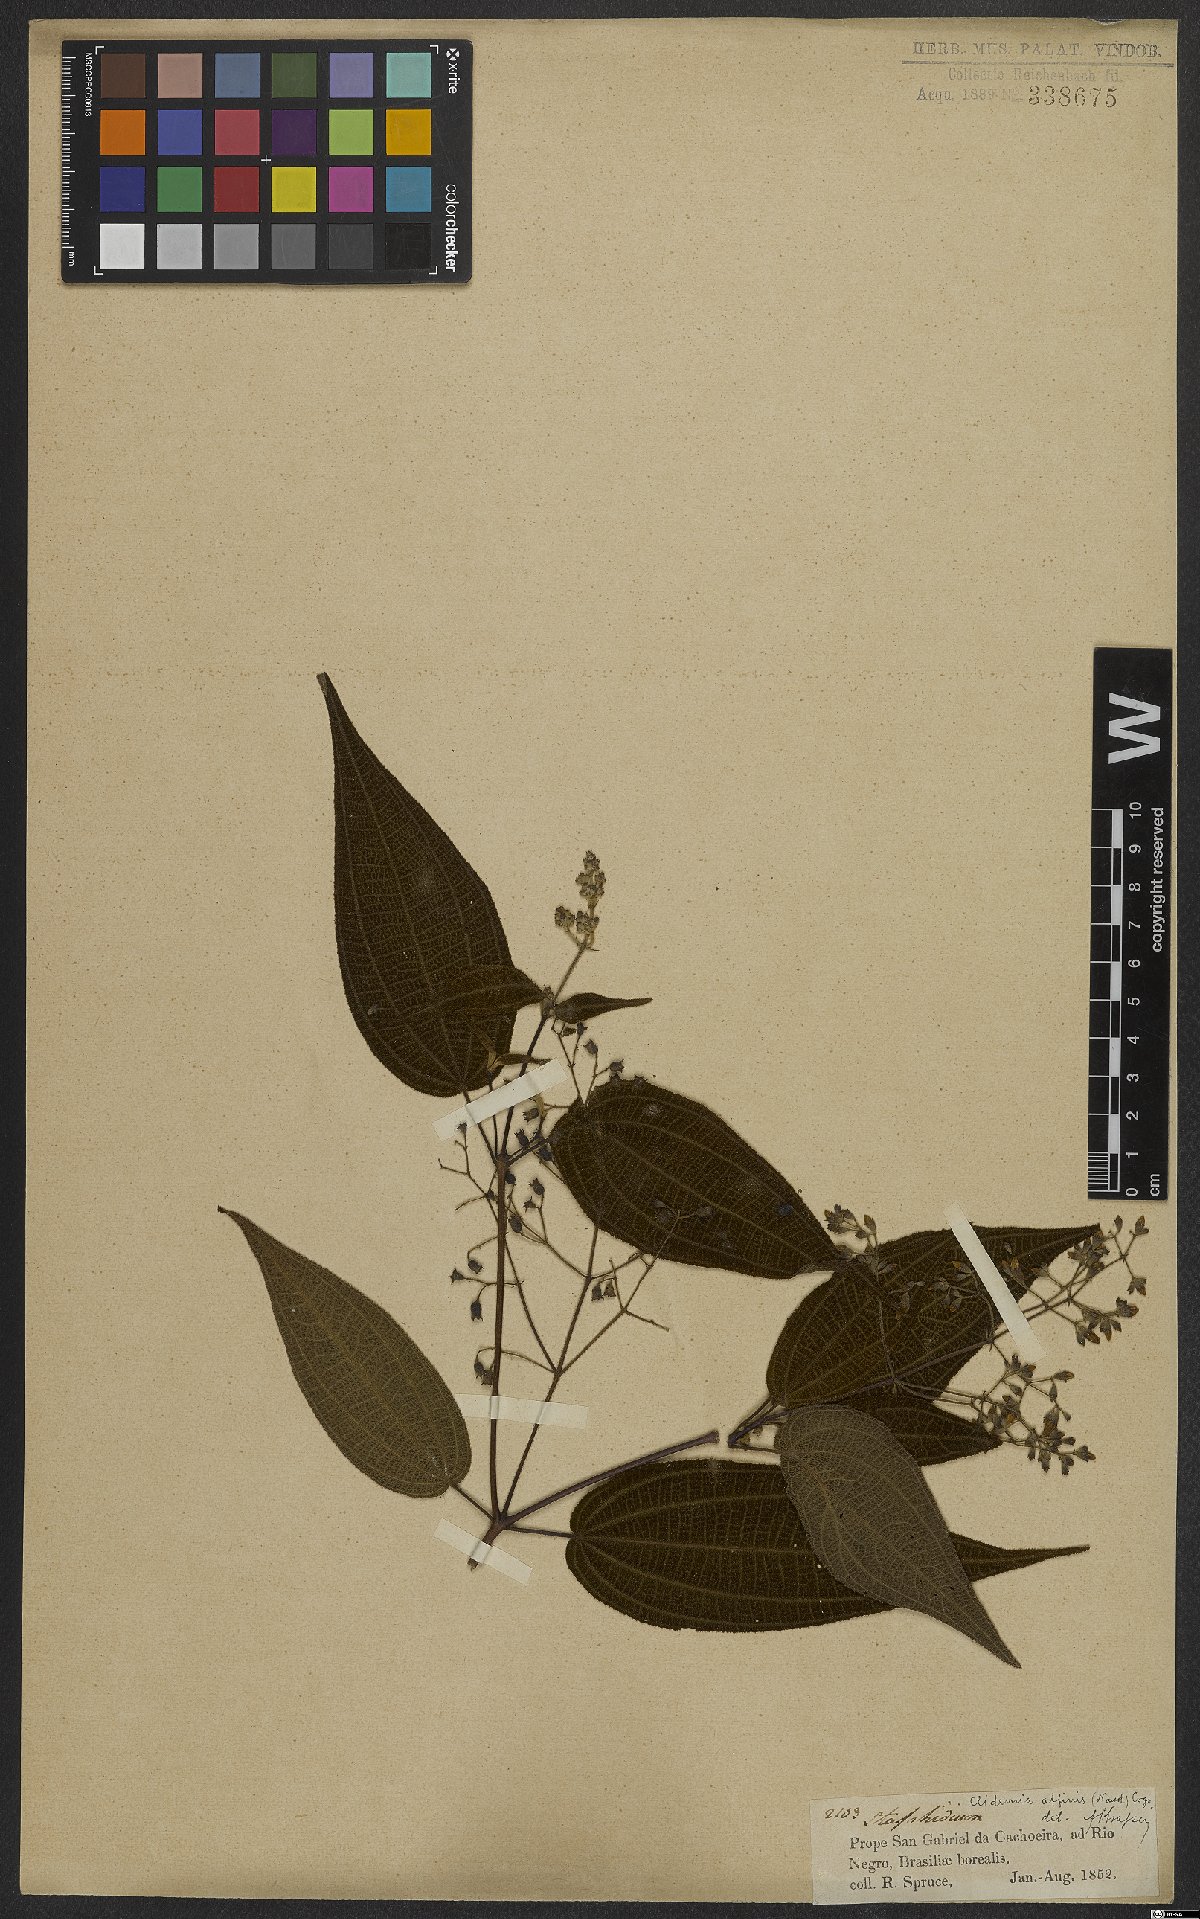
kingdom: Plantae
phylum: Tracheophyta
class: Magnoliopsida
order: Myrtales
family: Melastomataceae
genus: Miconia
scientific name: Miconia bullatifolia
